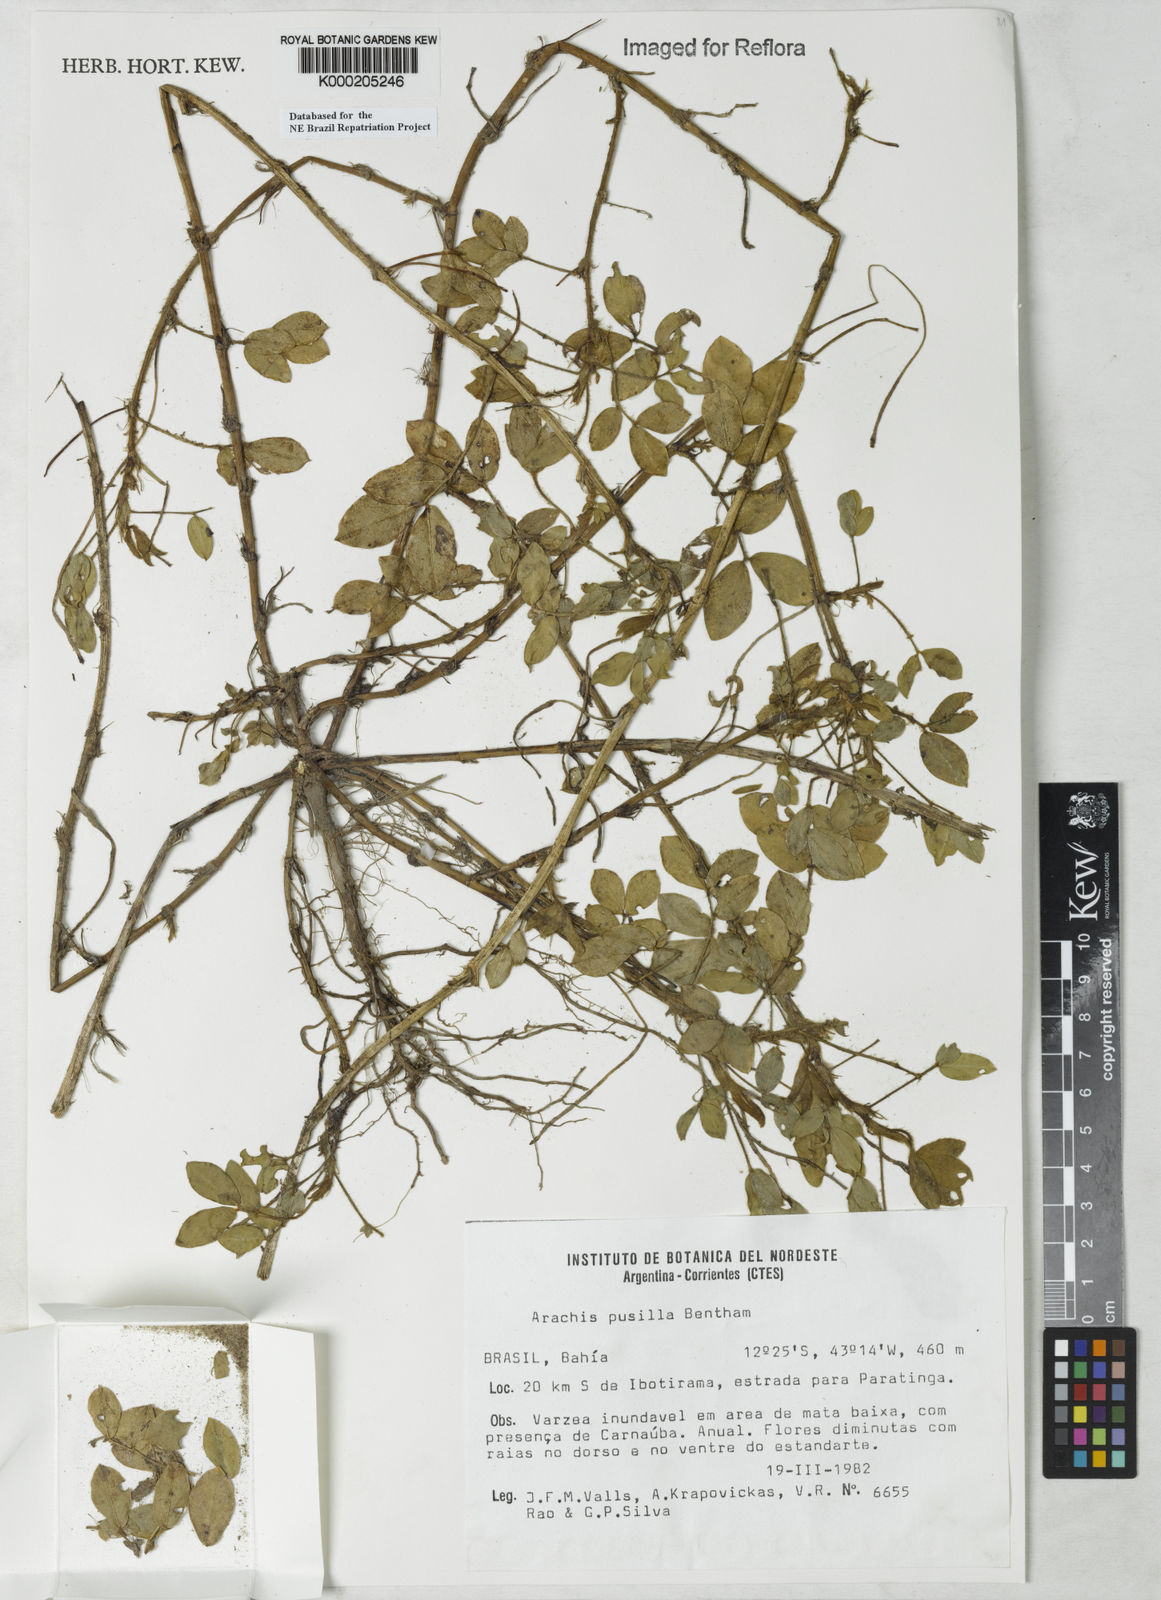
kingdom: Plantae
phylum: Tracheophyta
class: Magnoliopsida
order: Fabales
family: Fabaceae
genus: Arachis
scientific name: Arachis pusilla
